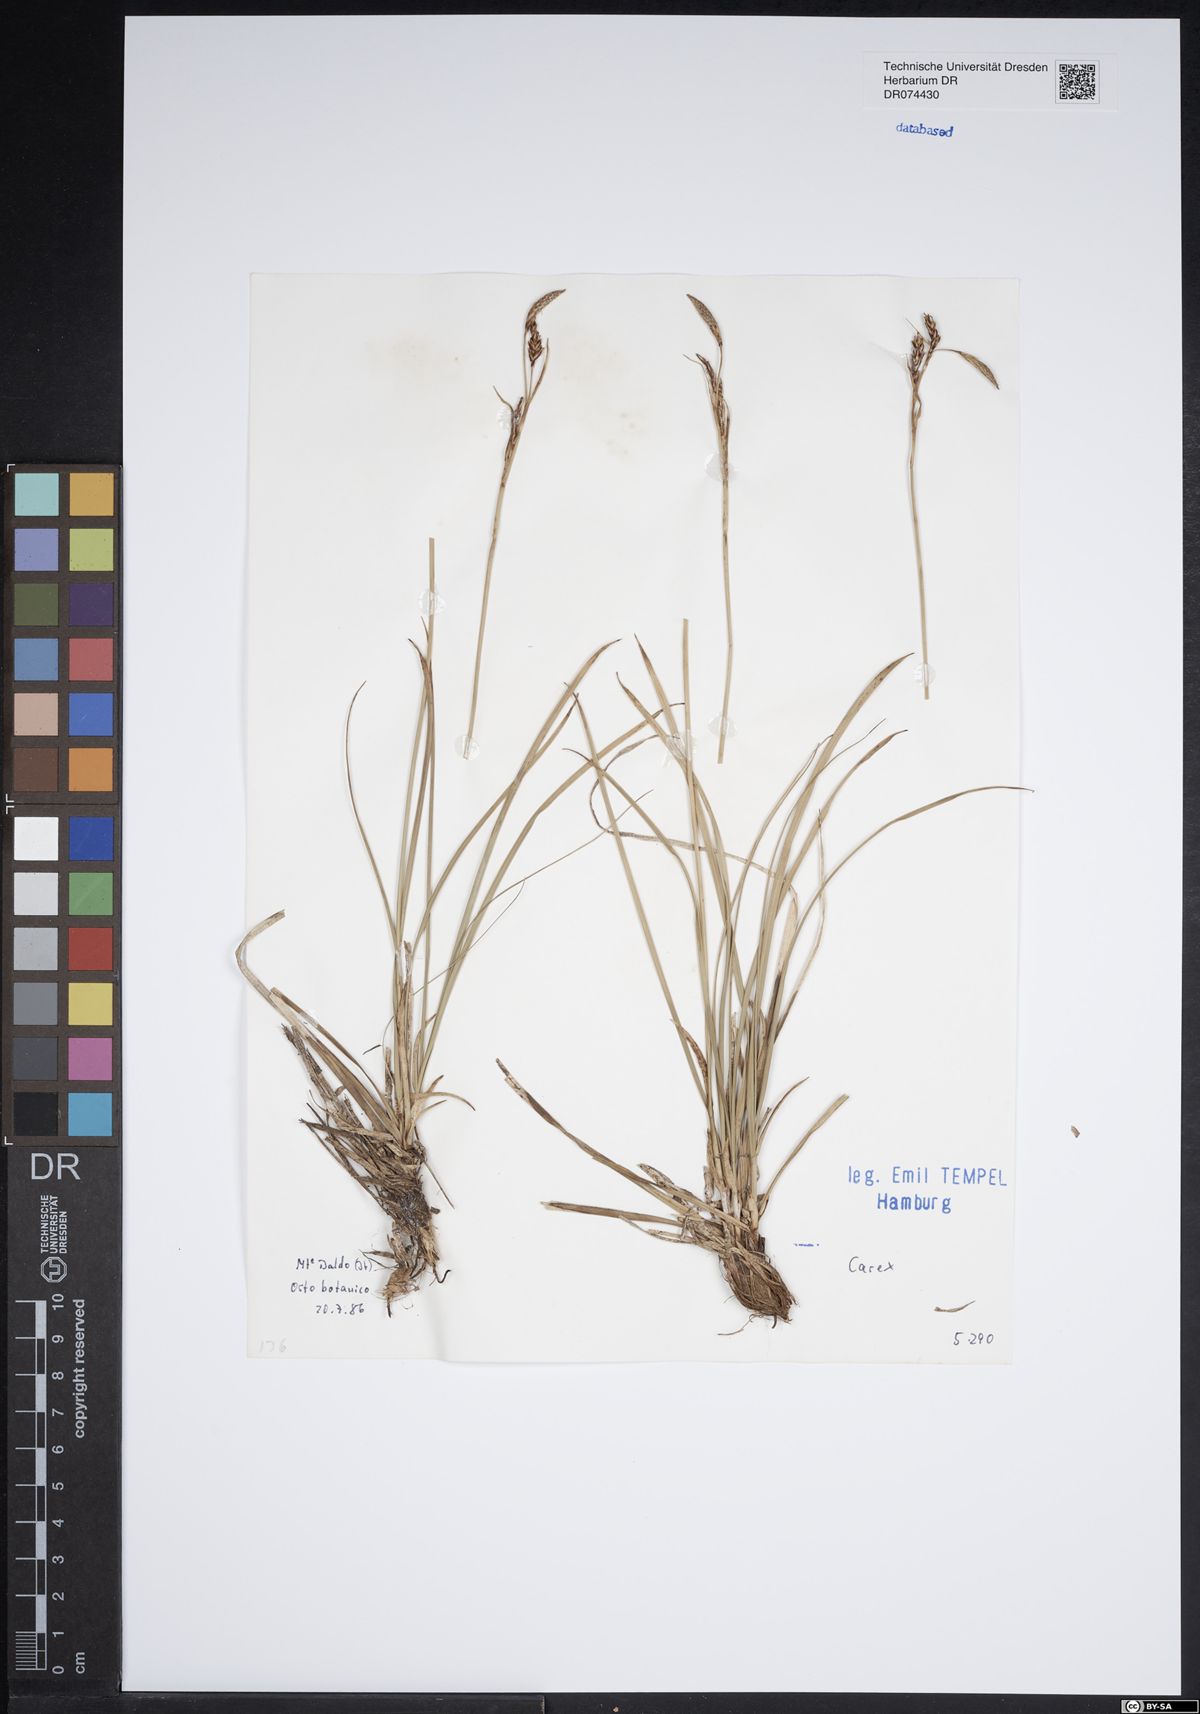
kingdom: Plantae
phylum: Tracheophyta
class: Liliopsida
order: Poales
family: Cyperaceae
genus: Carex
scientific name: Carex
